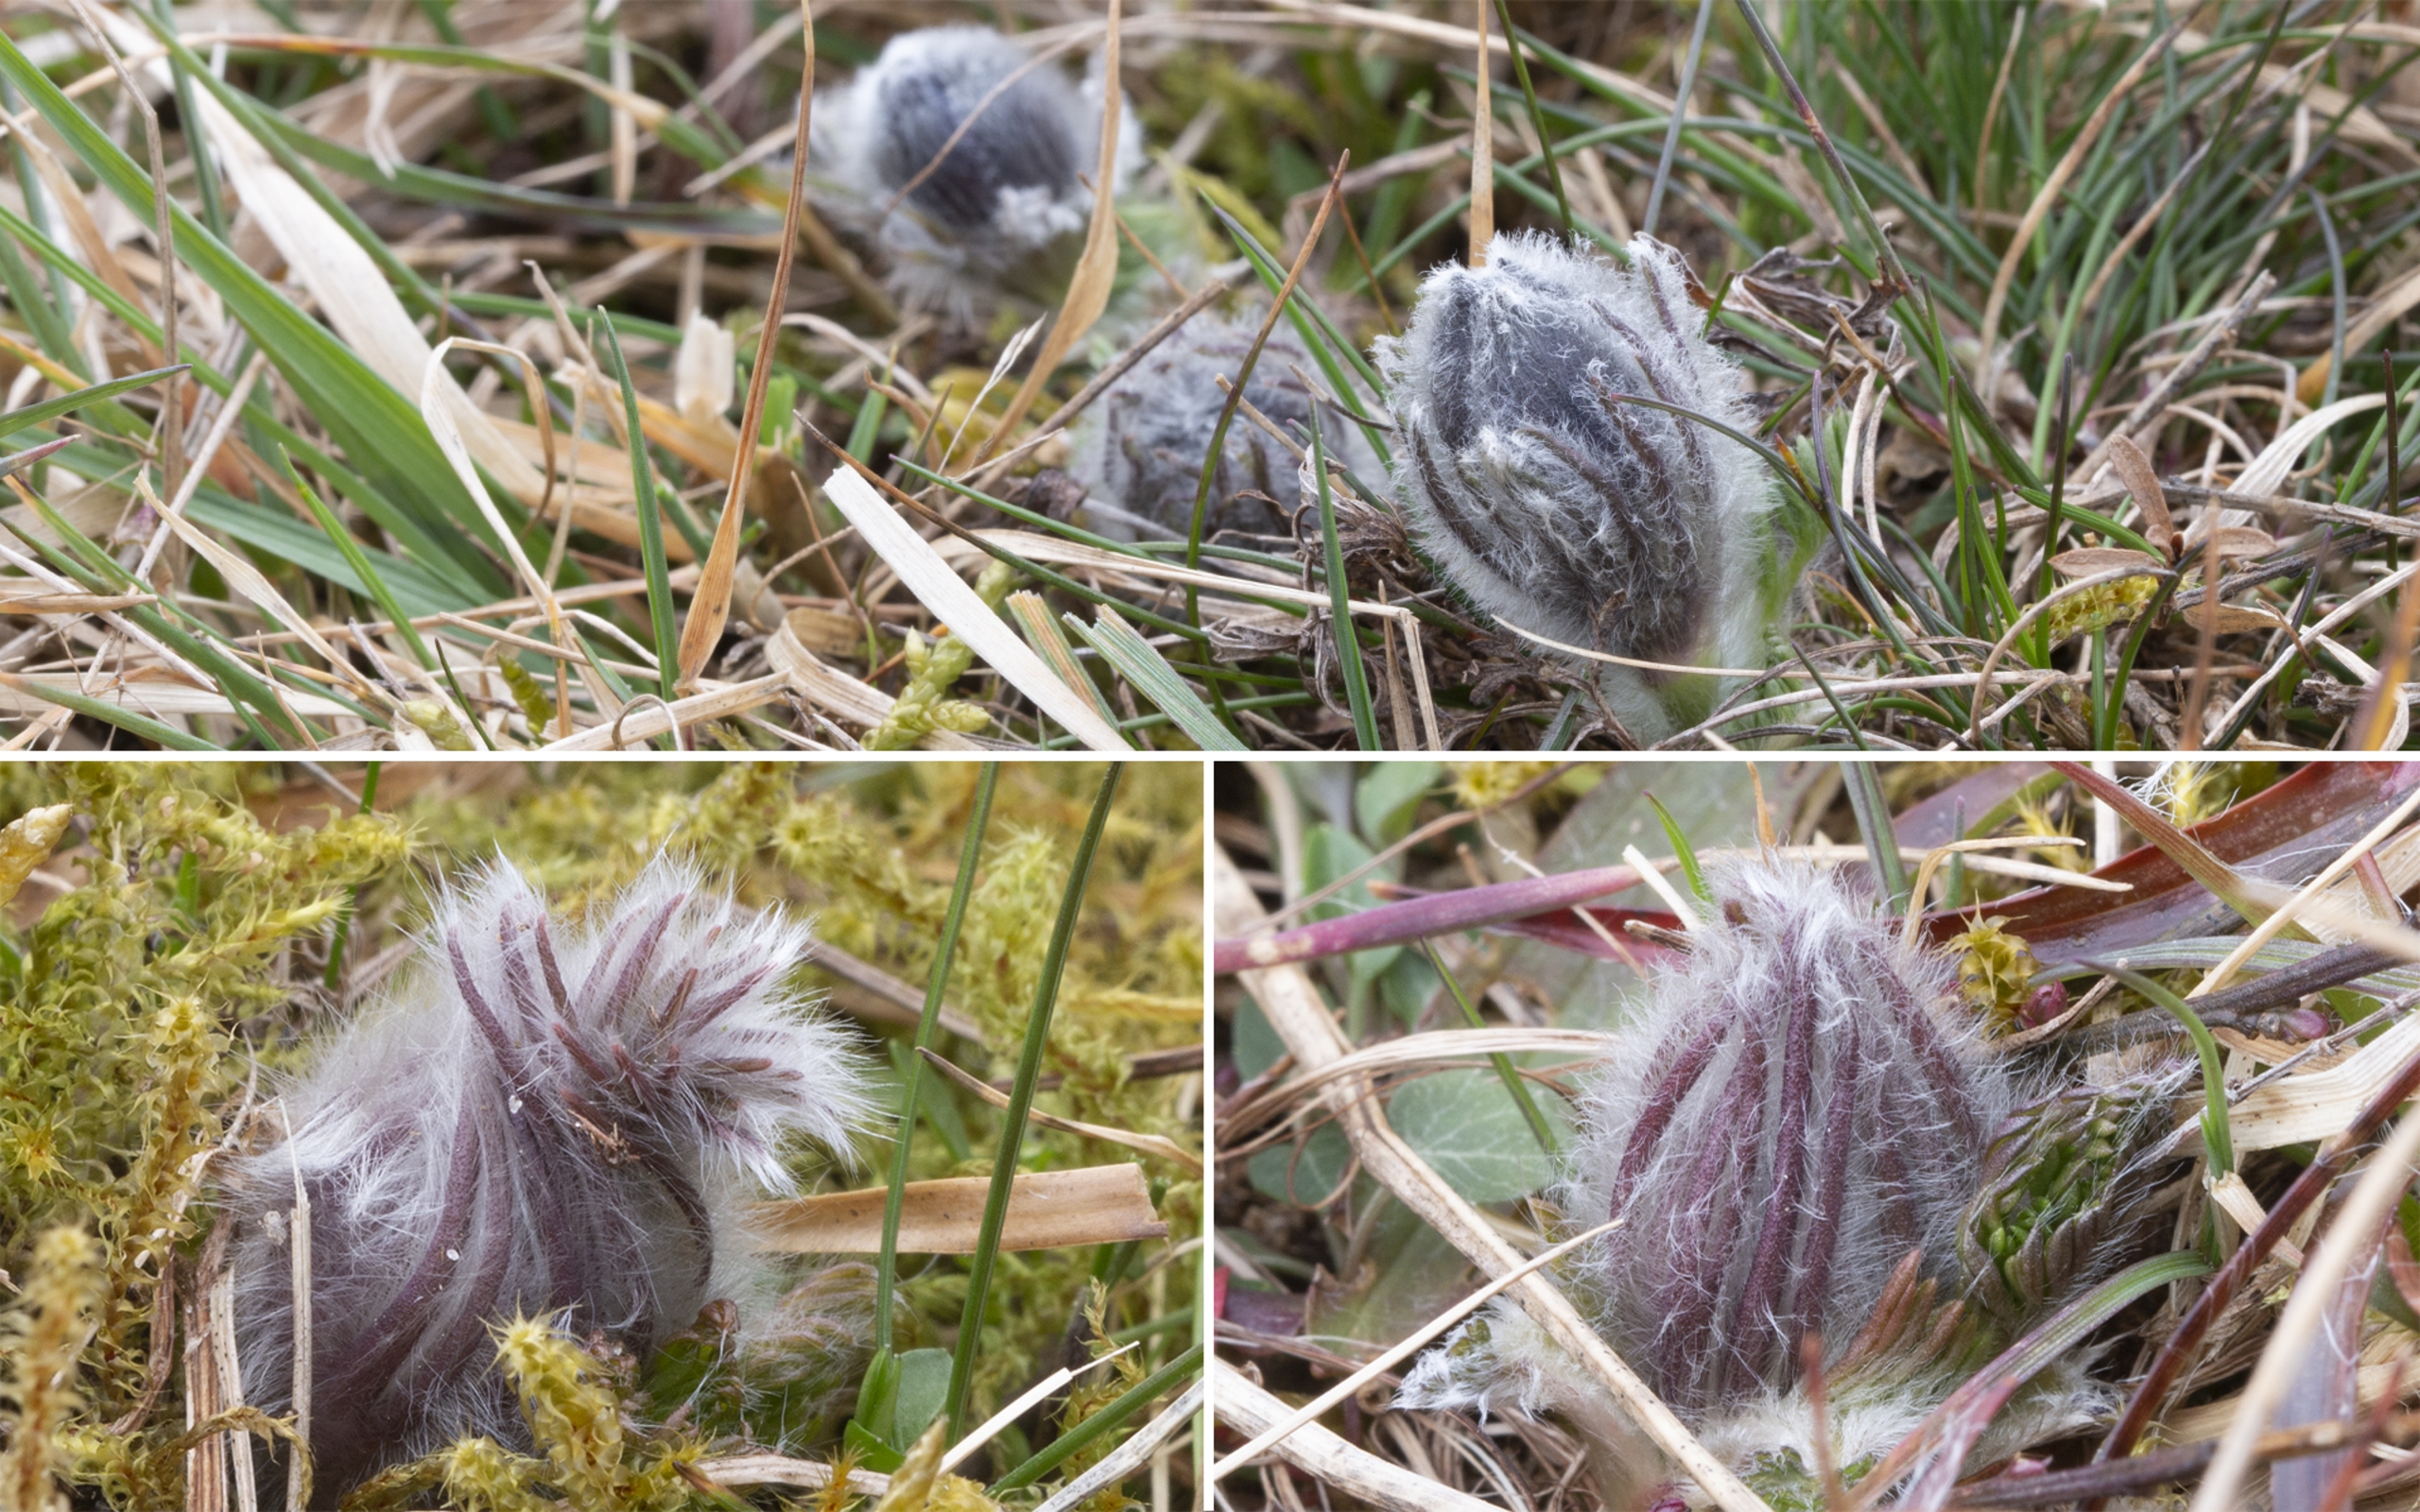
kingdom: Plantae
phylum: Tracheophyta
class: Magnoliopsida
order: Ranunculales
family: Ranunculaceae
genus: Pulsatilla
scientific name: Pulsatilla vulgaris
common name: Opret kobjælde
